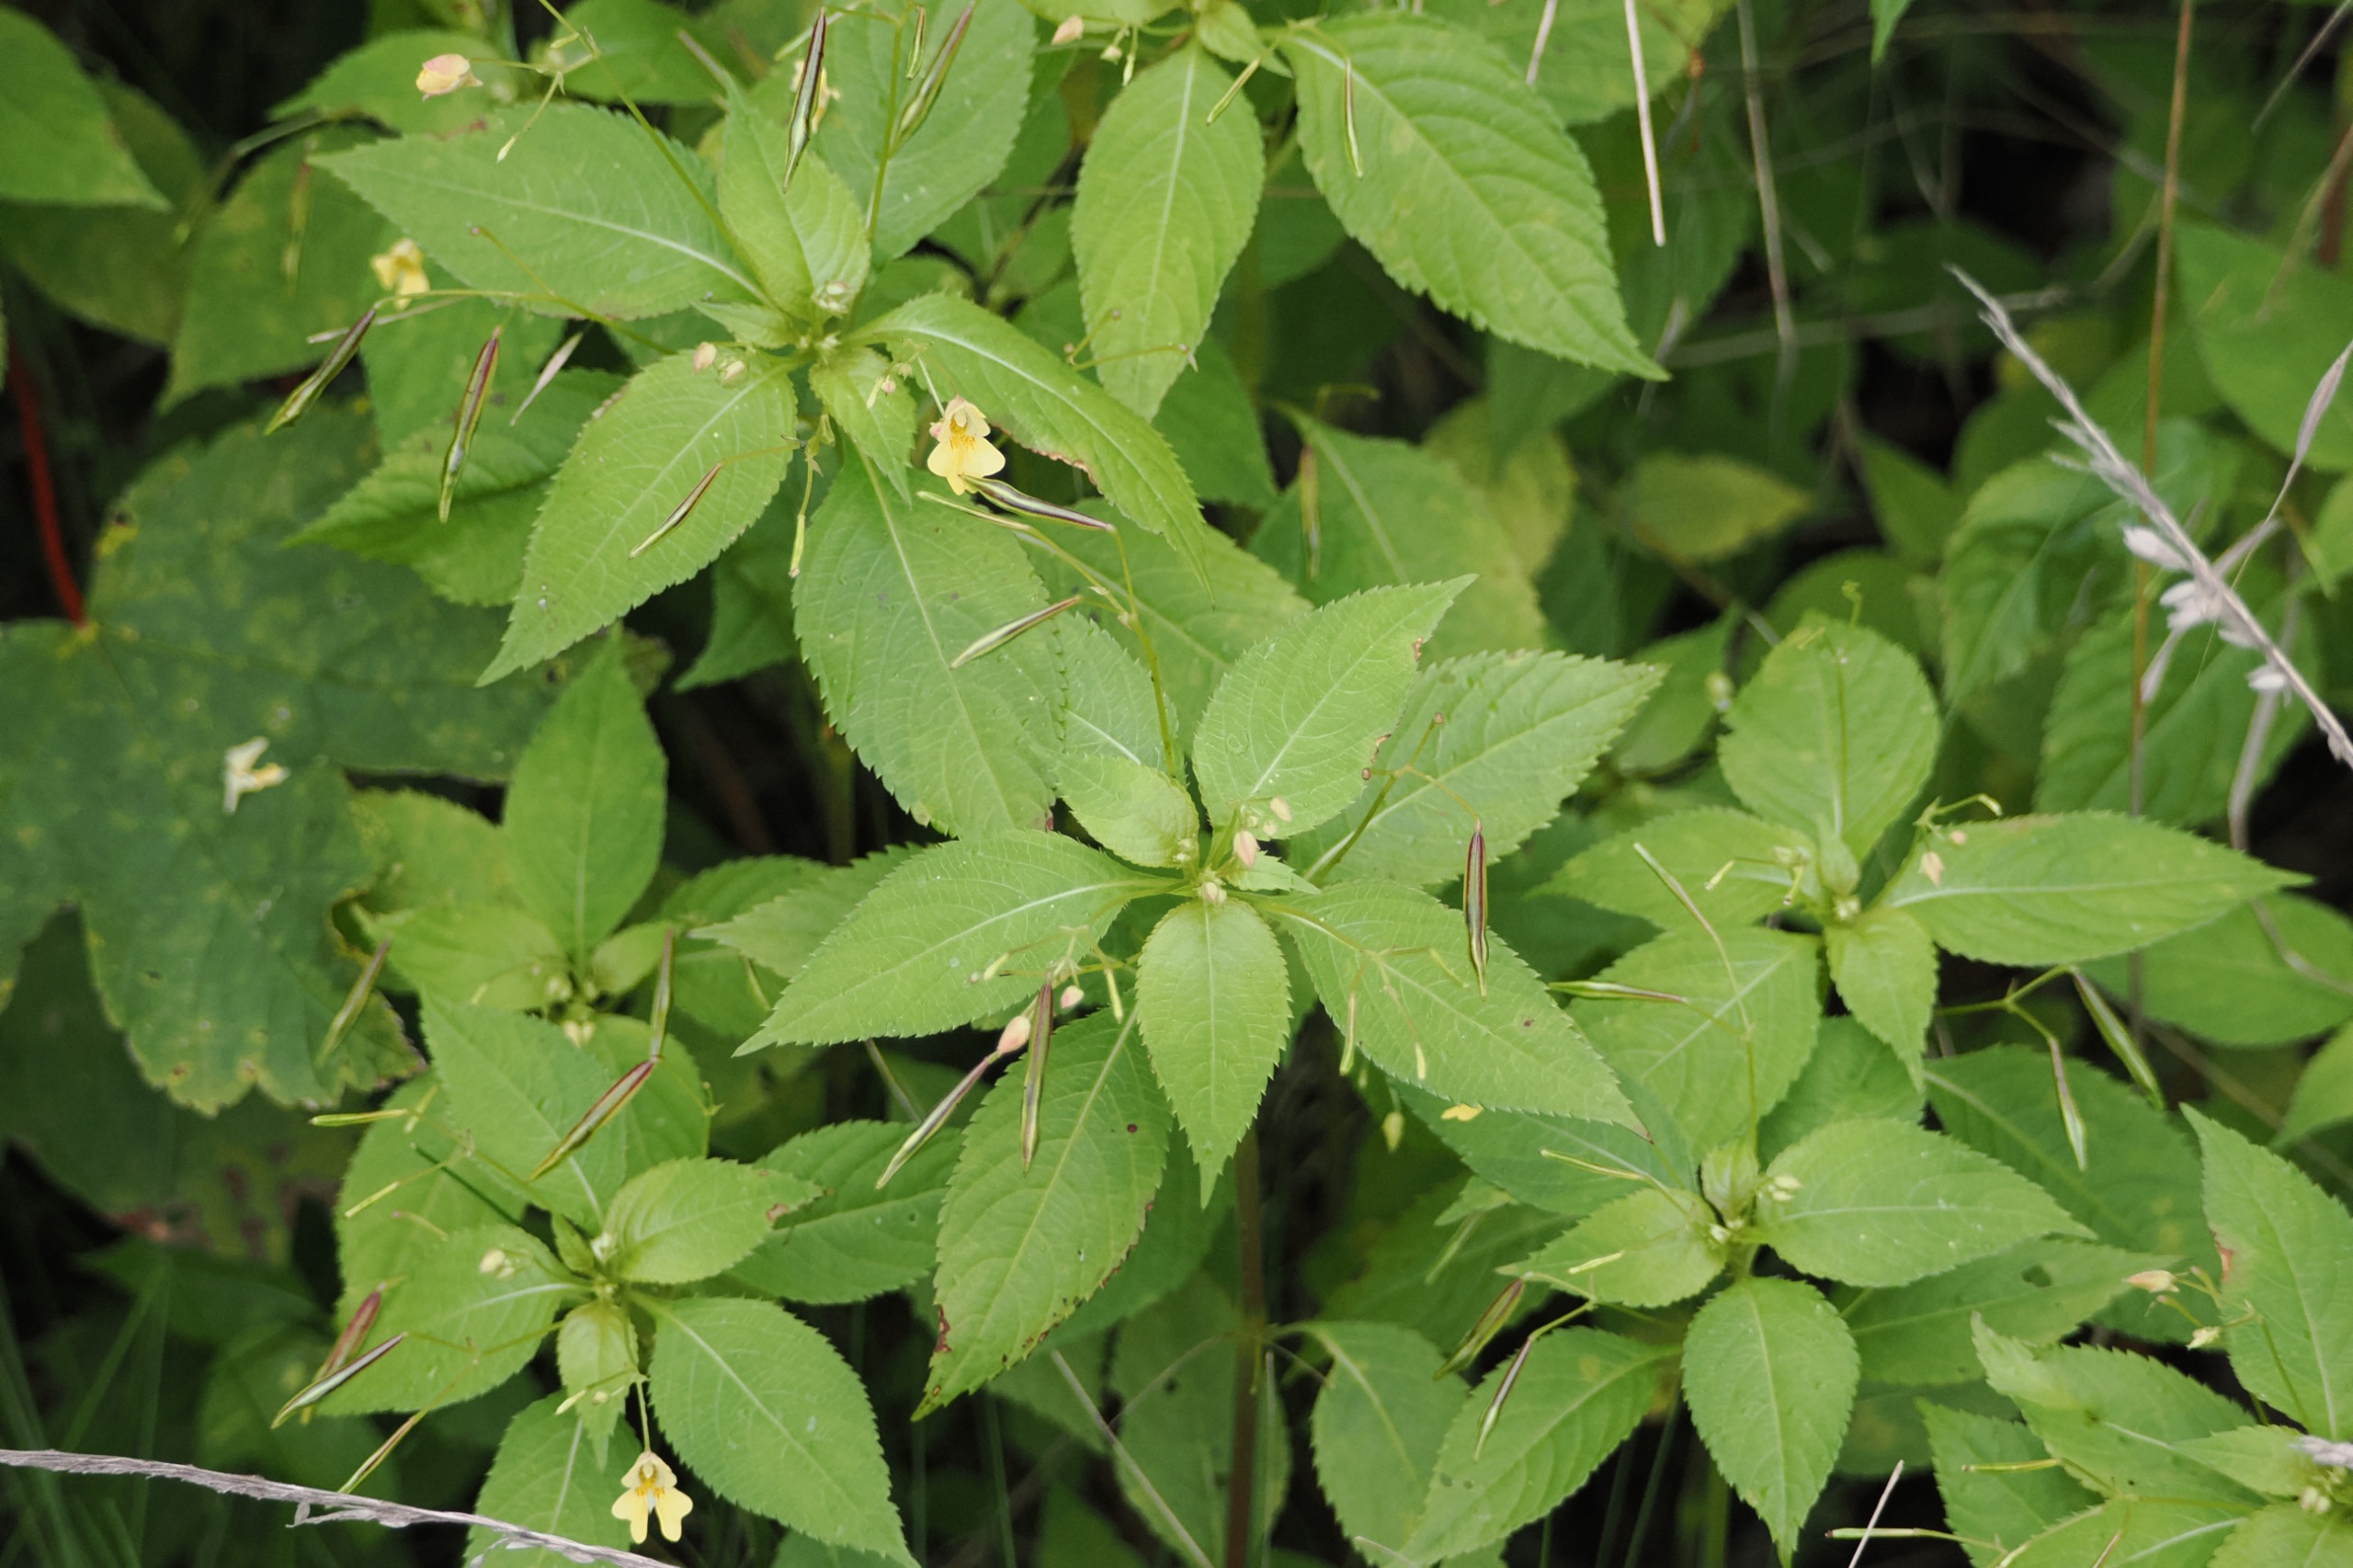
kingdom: Plantae
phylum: Tracheophyta
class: Magnoliopsida
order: Ericales
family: Balsaminaceae
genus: Impatiens
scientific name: Impatiens parviflora
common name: Småblomstret balsamin
